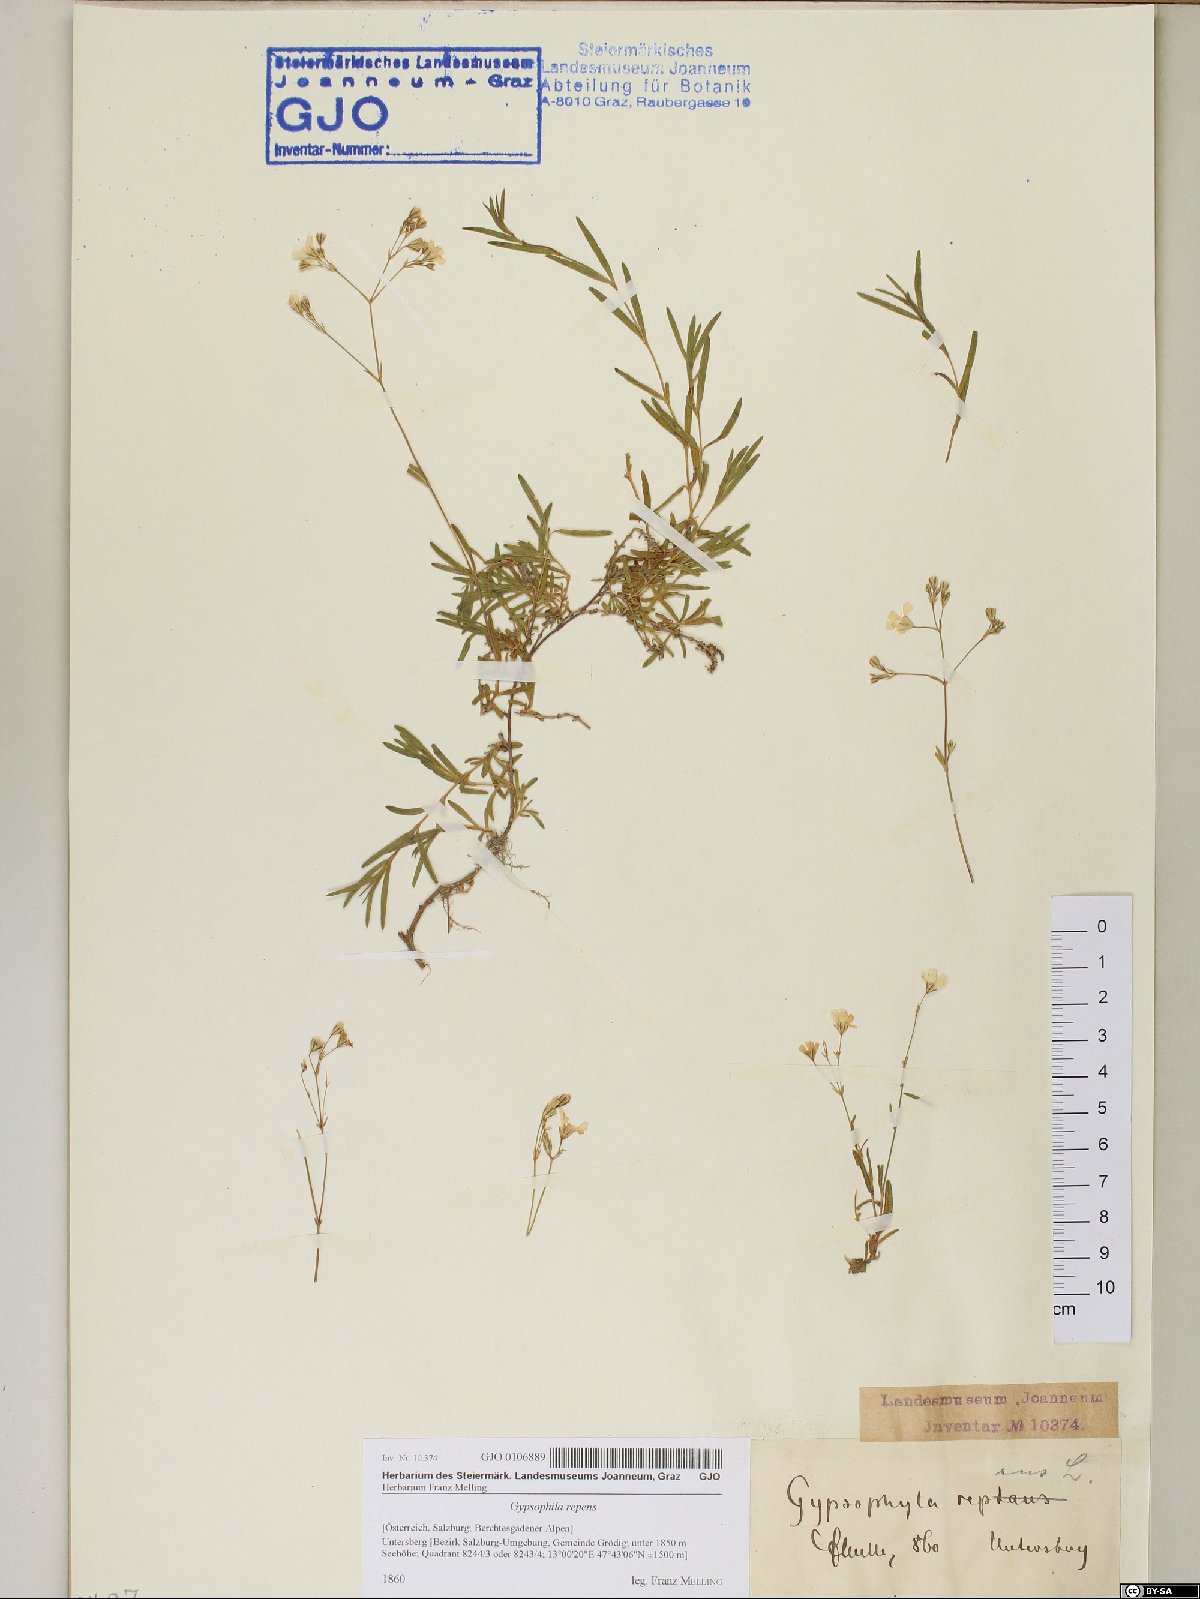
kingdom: Plantae
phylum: Tracheophyta
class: Magnoliopsida
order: Caryophyllales
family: Caryophyllaceae
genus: Gypsophila
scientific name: Gypsophila repens
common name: Creeping baby's-breath
